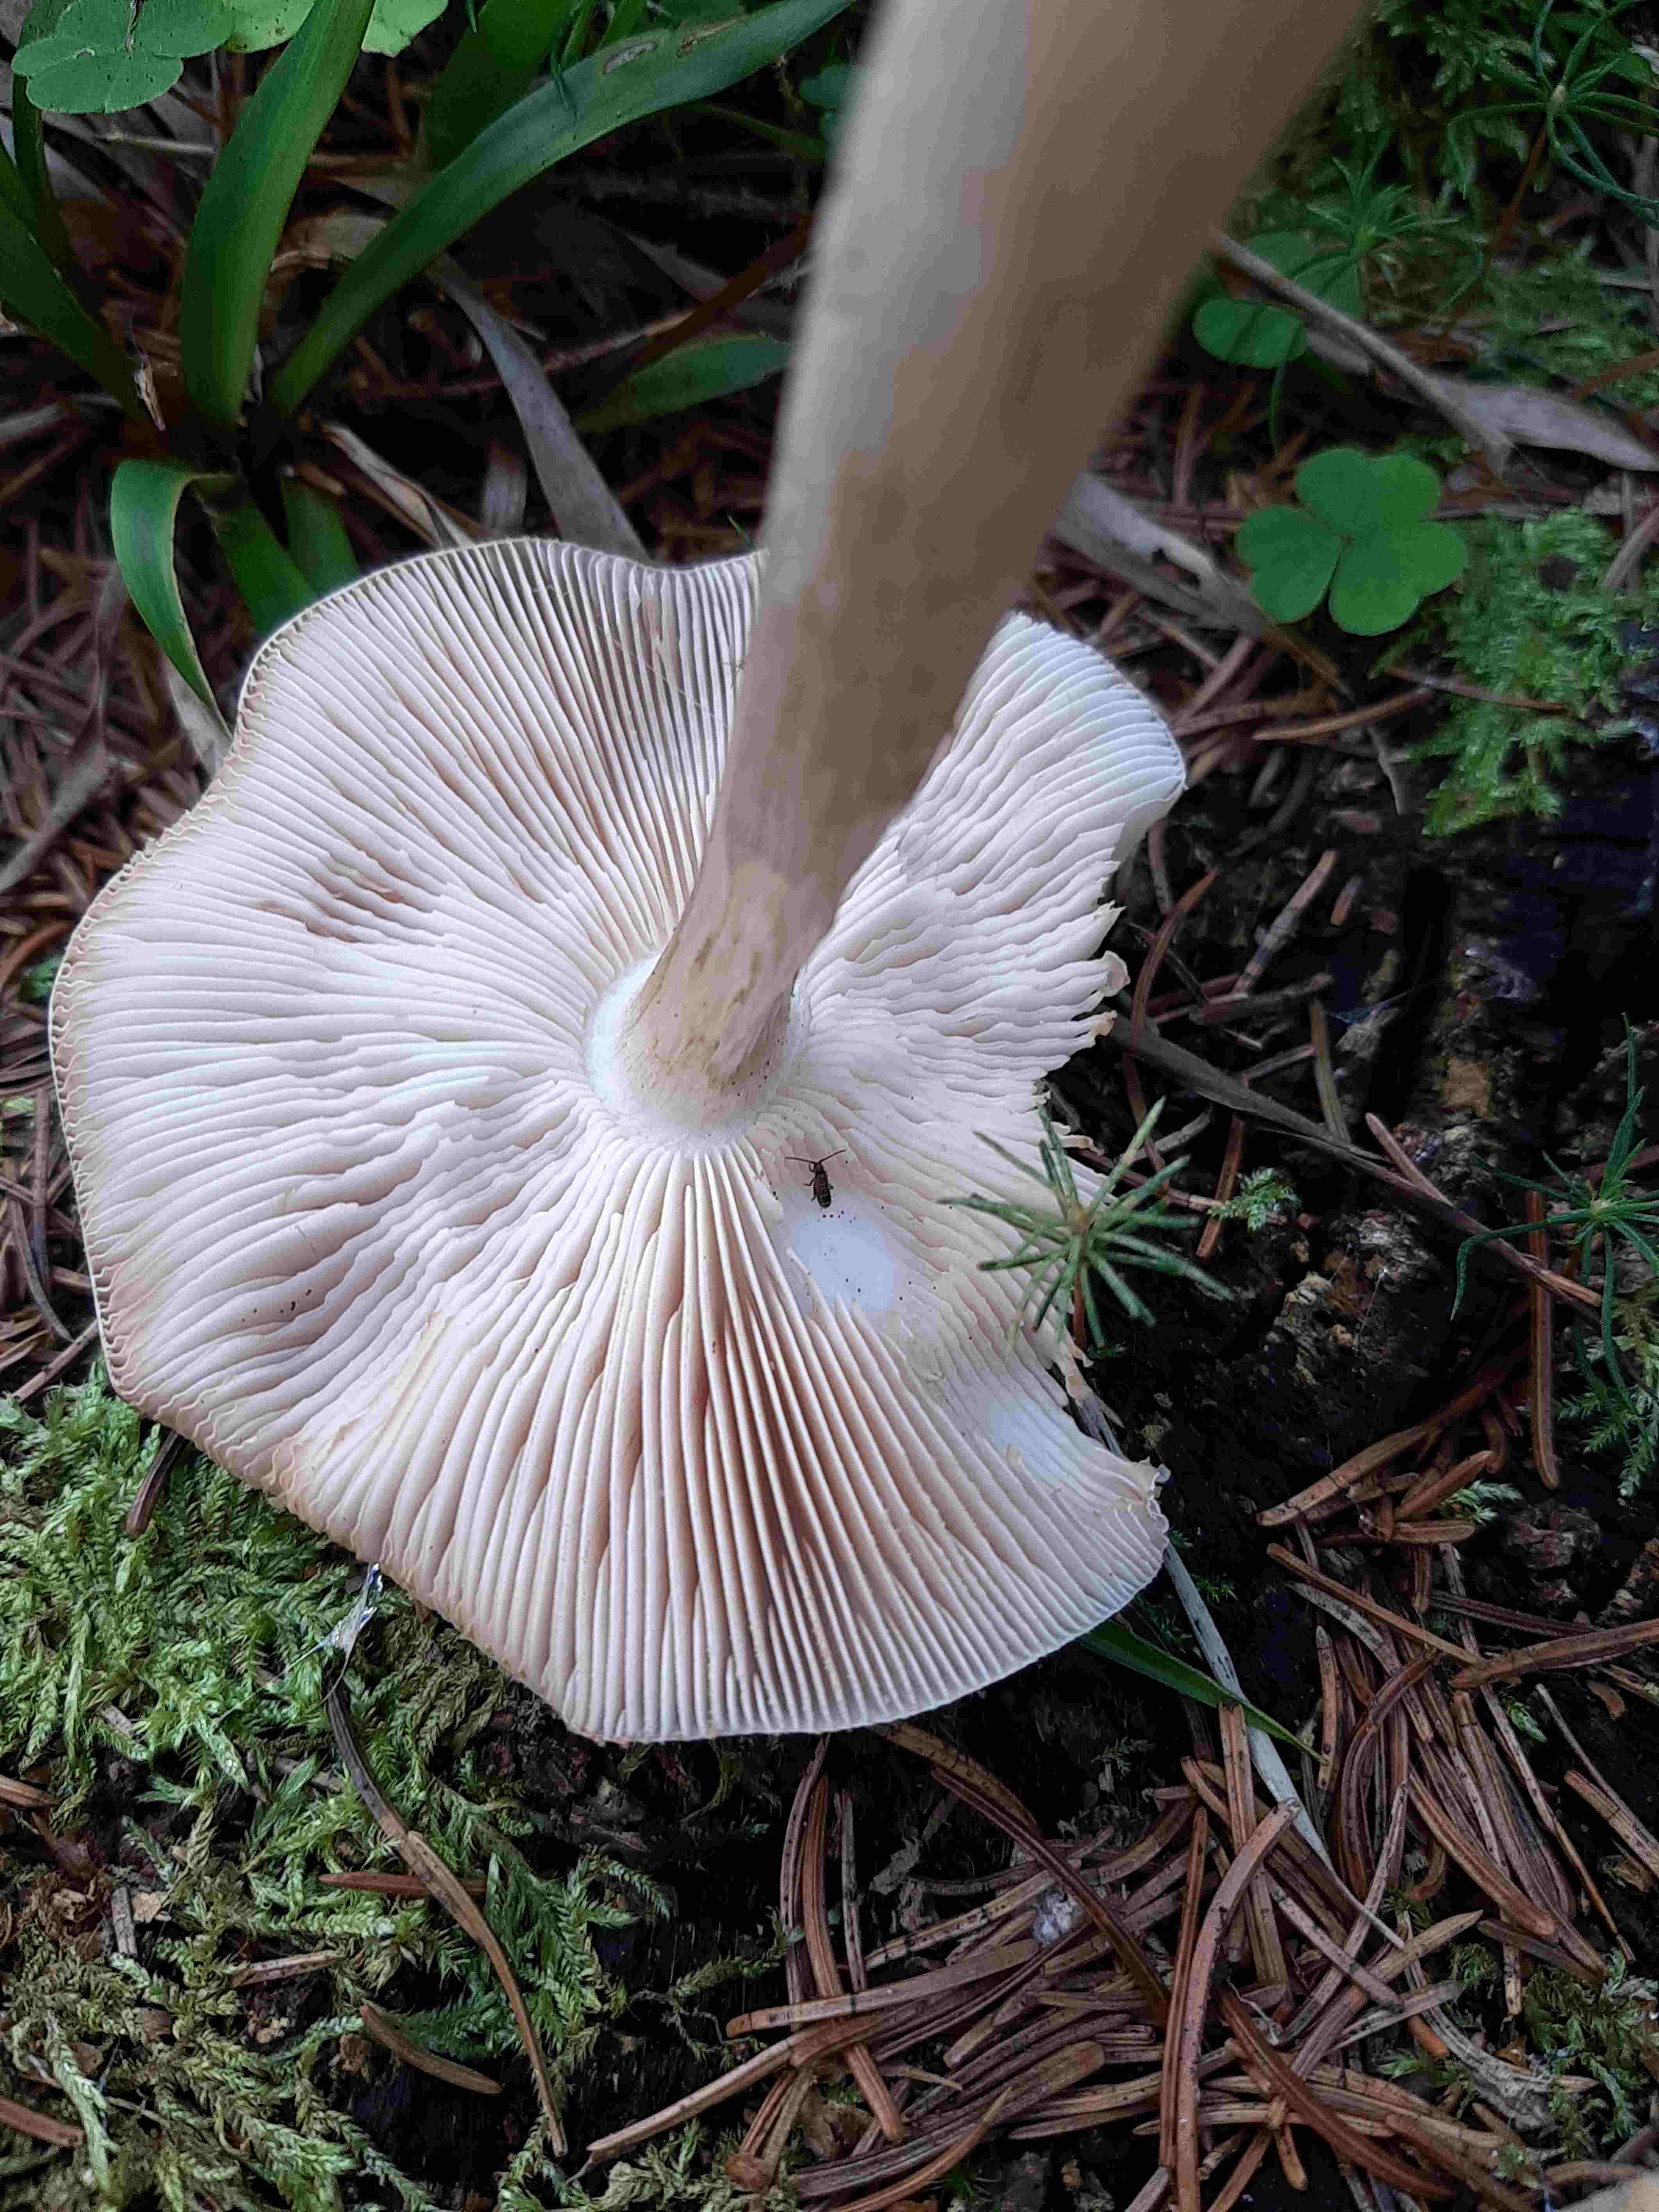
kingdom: Fungi
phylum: Basidiomycota
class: Agaricomycetes
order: Agaricales
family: Pluteaceae
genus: Pluteus
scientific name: Pluteus
